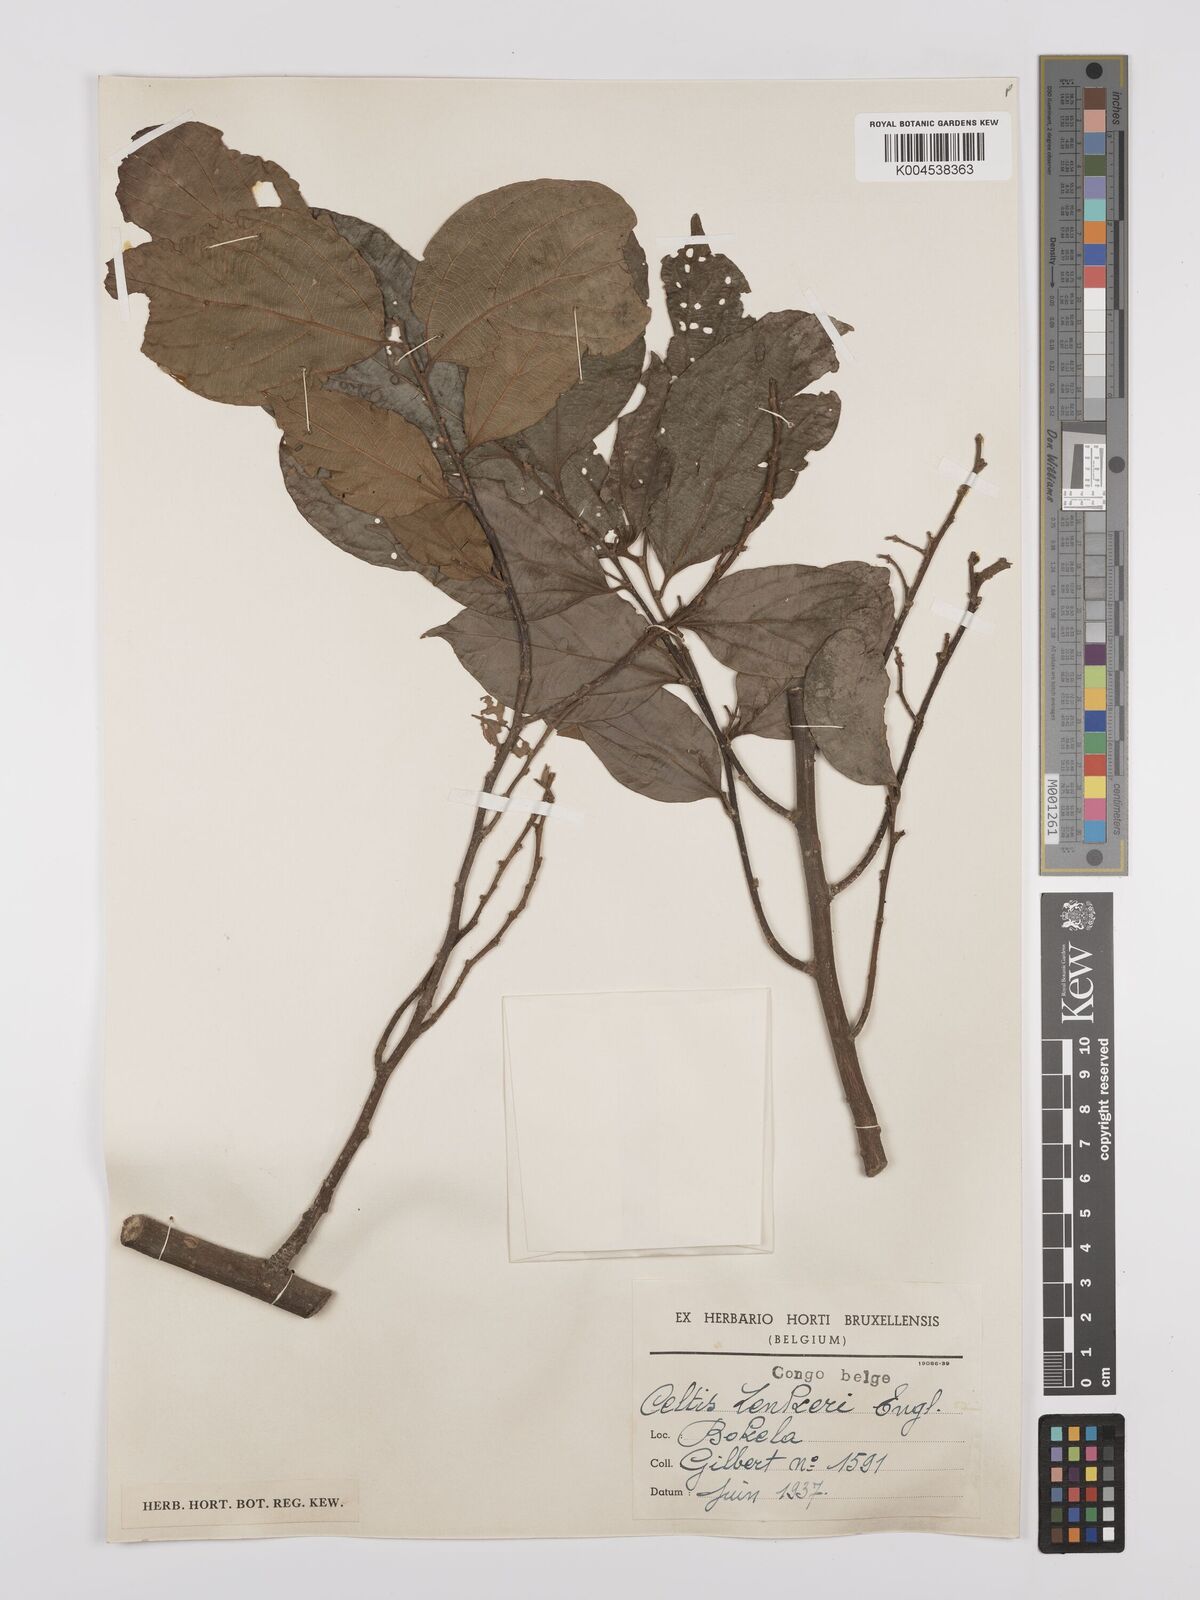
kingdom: Plantae
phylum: Tracheophyta
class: Magnoliopsida
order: Rosales
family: Cannabaceae
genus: Celtis
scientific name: Celtis zenkeri
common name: African celtis
